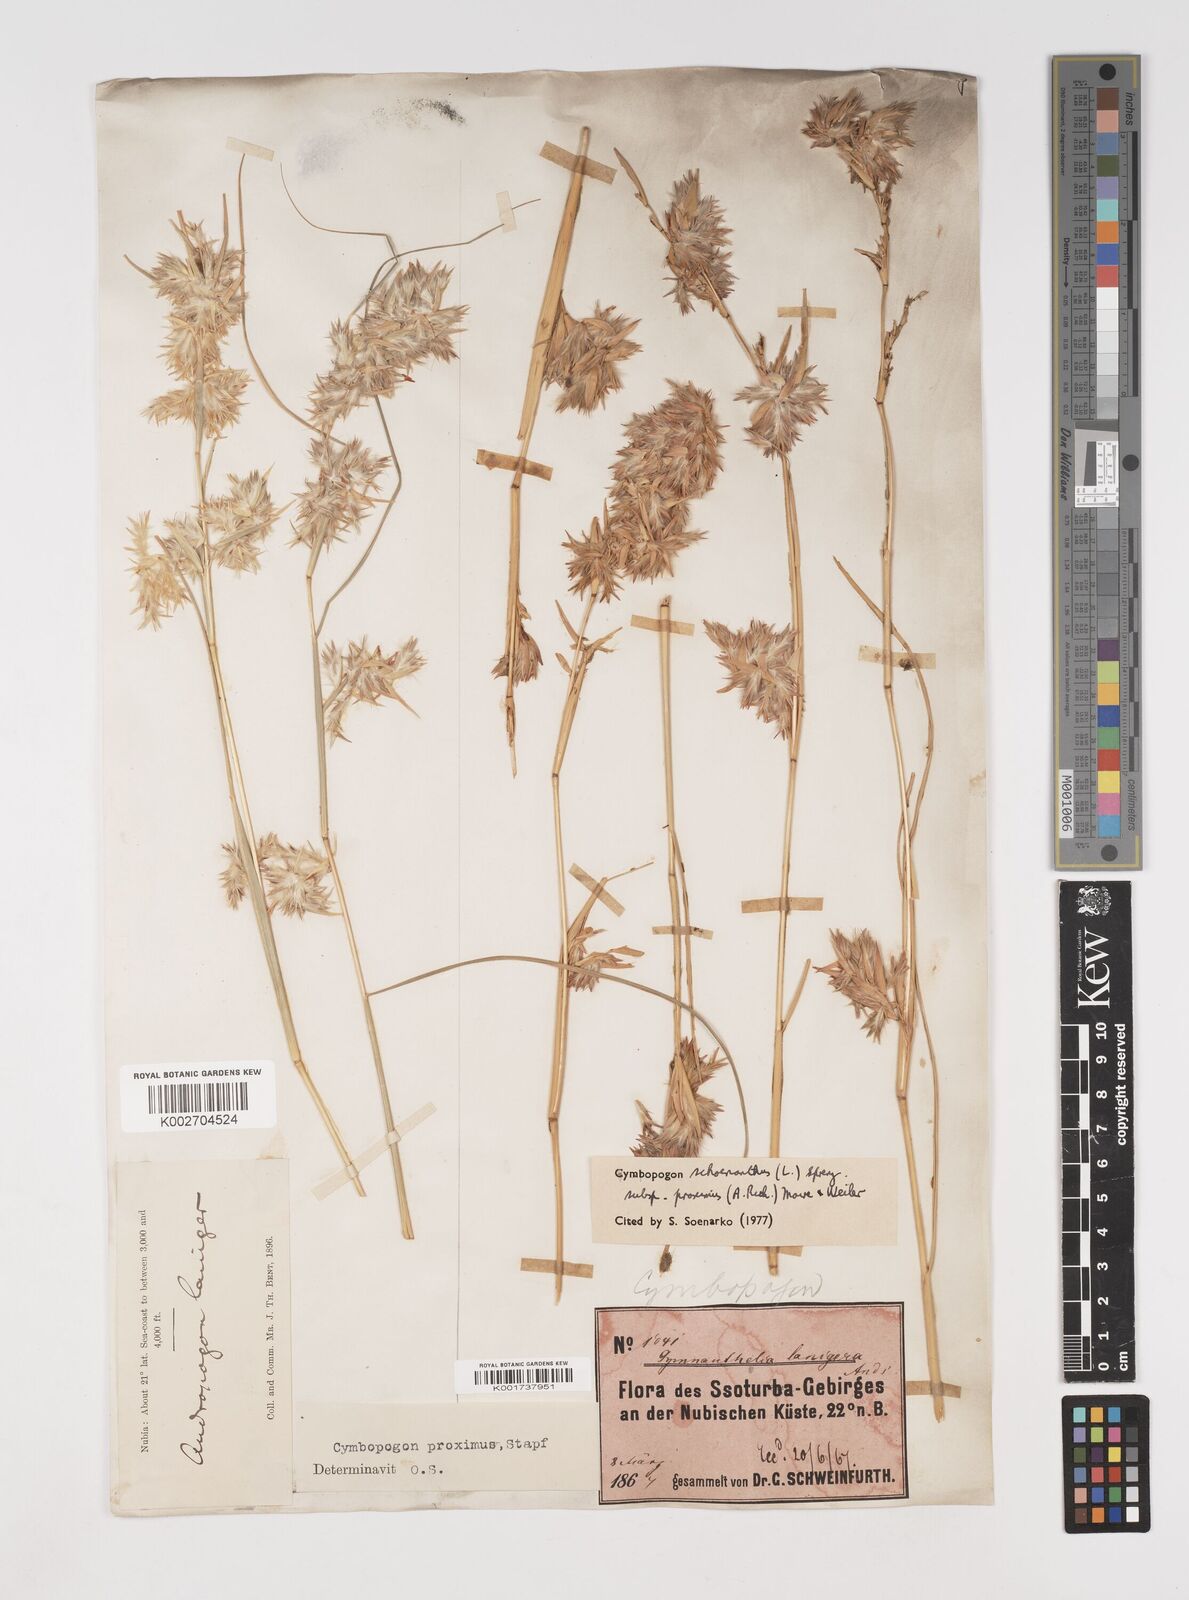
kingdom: Plantae
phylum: Tracheophyta
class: Liliopsida
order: Poales
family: Poaceae
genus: Cymbopogon
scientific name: Cymbopogon schoenanthus
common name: Geranium grass
